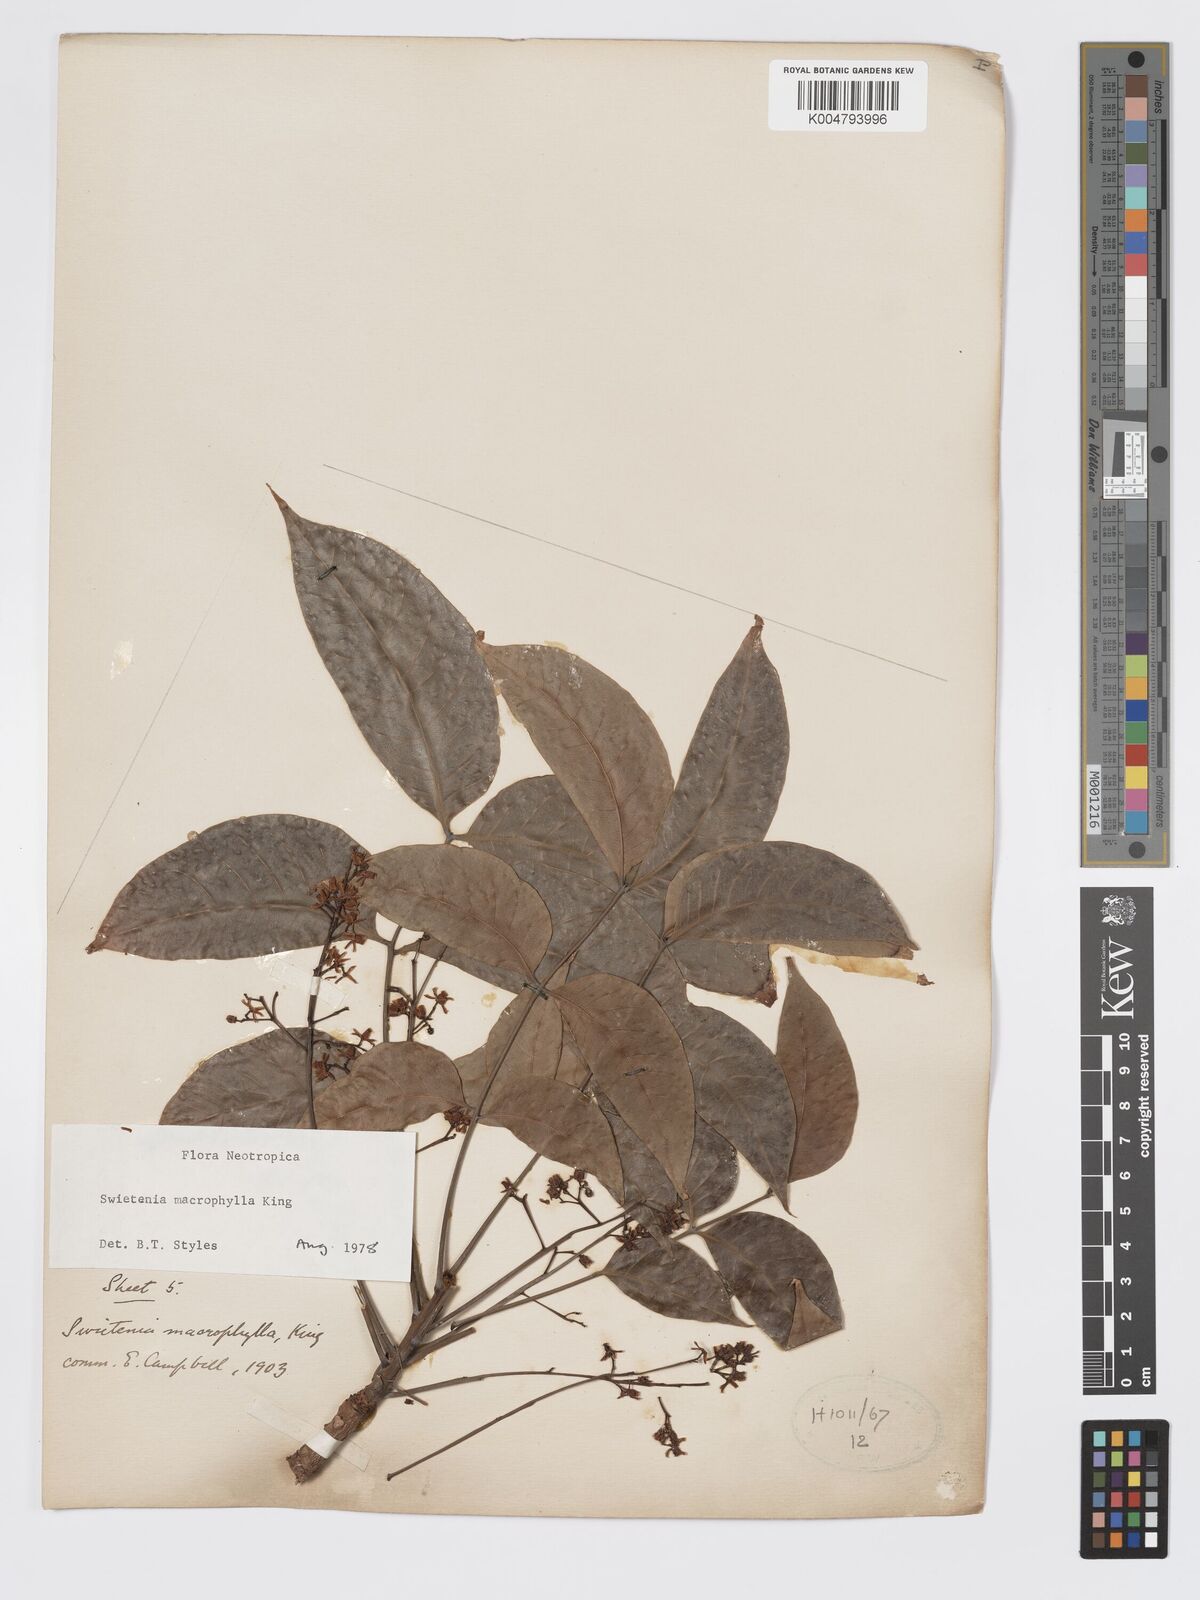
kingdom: Plantae
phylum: Tracheophyta
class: Magnoliopsida
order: Sapindales
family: Meliaceae
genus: Swietenia
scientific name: Swietenia macrophylla
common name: Honduras mahogany
